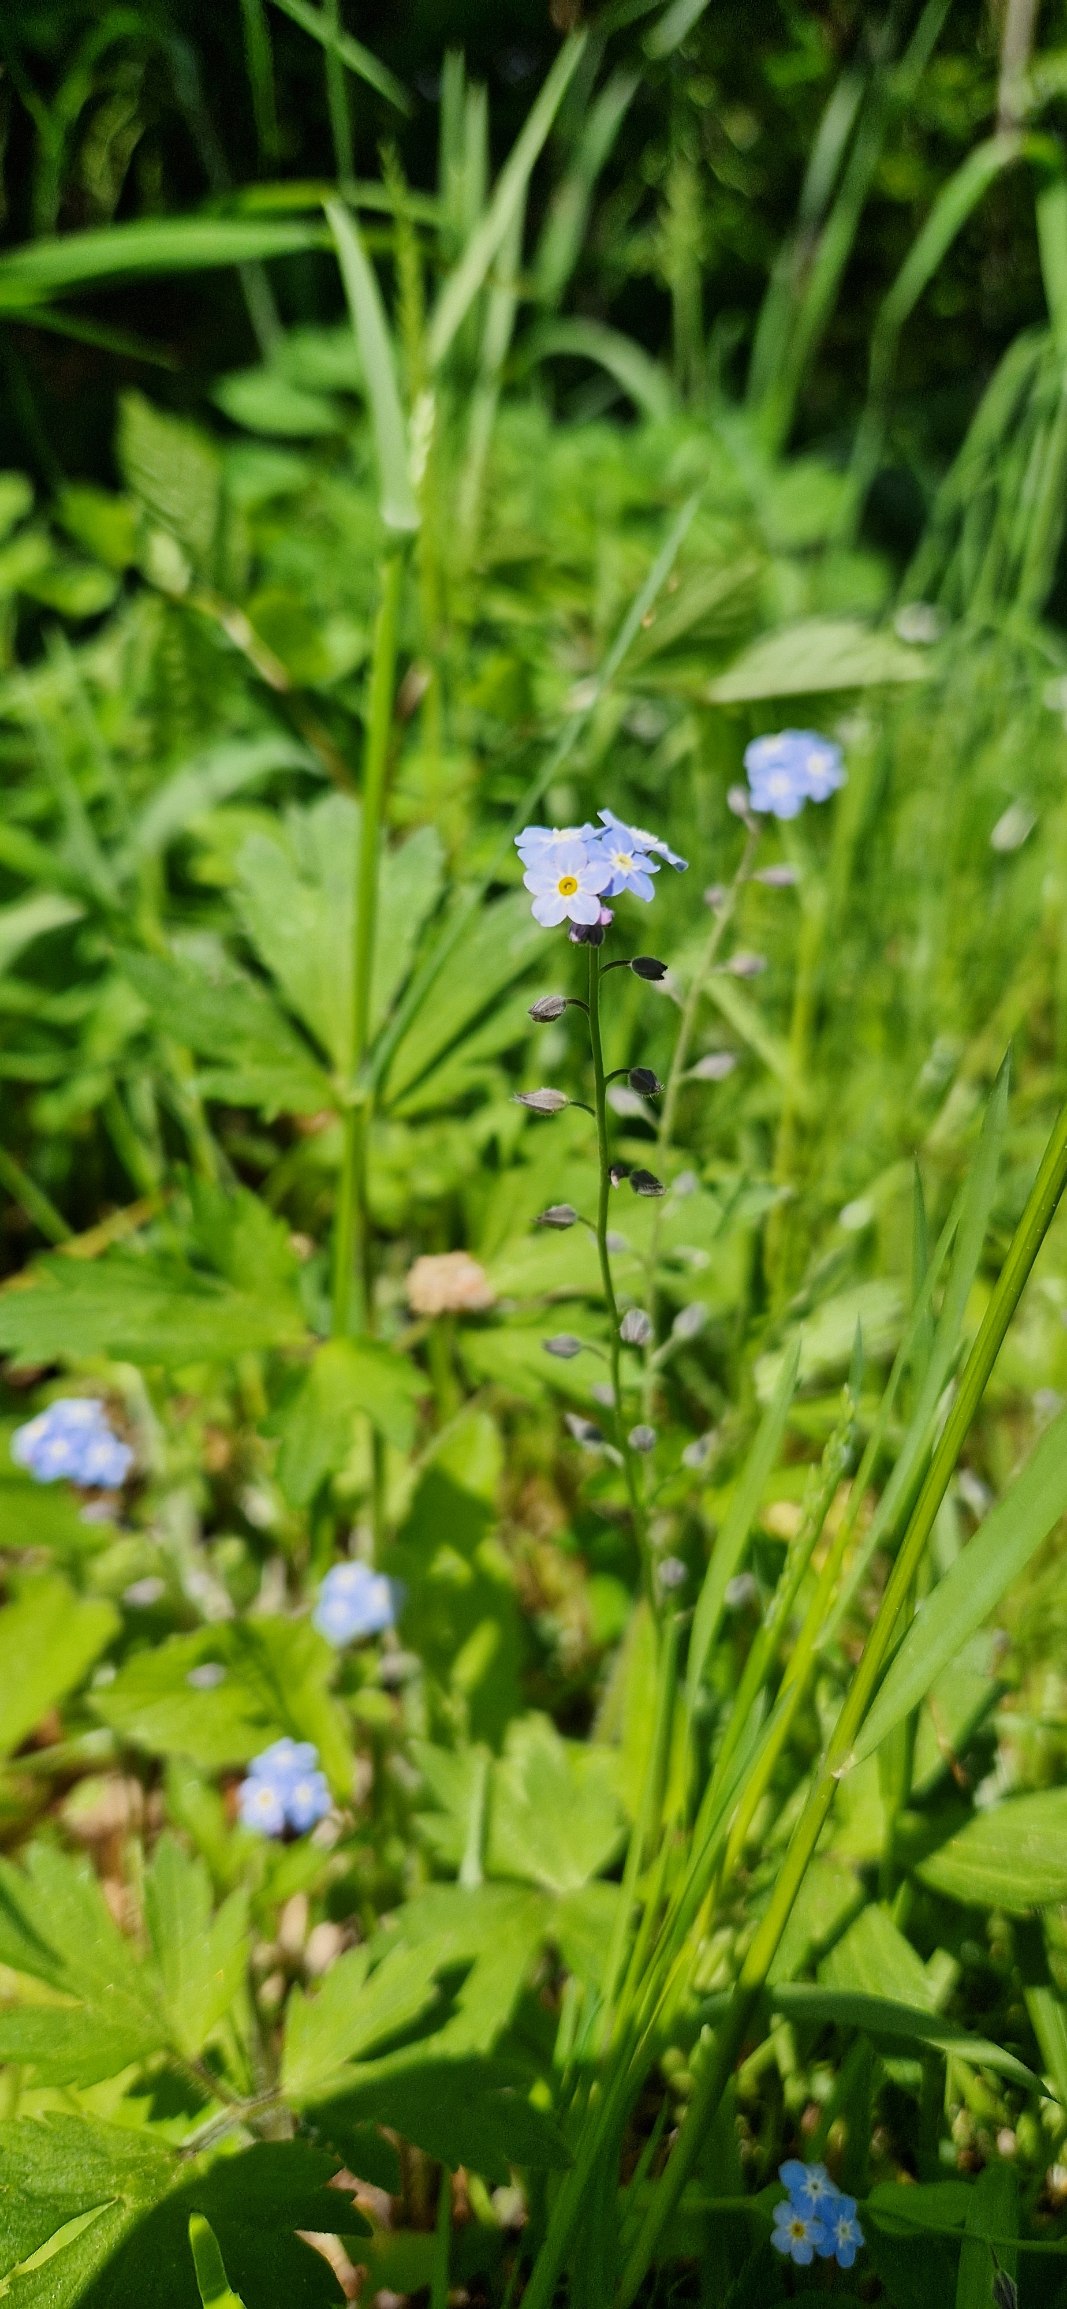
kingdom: Plantae
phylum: Tracheophyta
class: Magnoliopsida
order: Boraginales
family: Boraginaceae
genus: Myosotis
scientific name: Myosotis sylvatica
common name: Skov-forglemmigej
